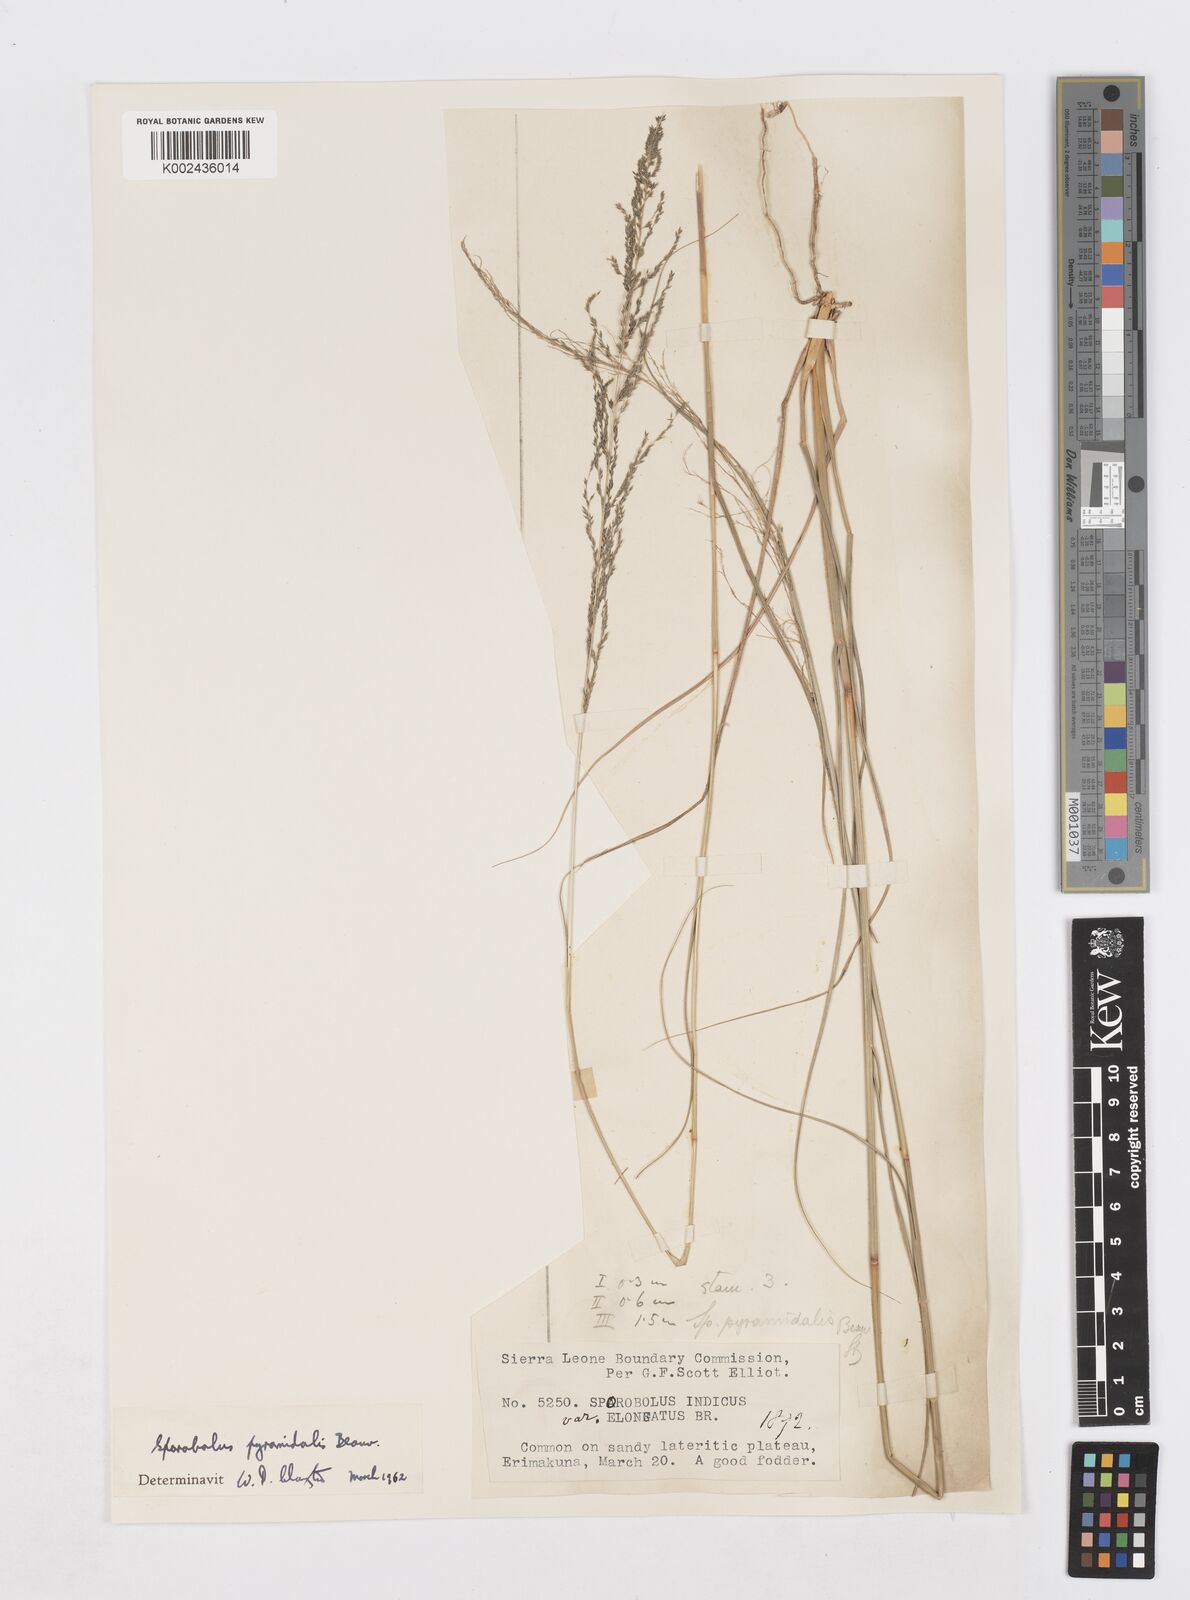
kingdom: Plantae
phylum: Tracheophyta
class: Liliopsida
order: Poales
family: Poaceae
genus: Sporobolus
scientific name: Sporobolus pyramidalis
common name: West indian dropseed
